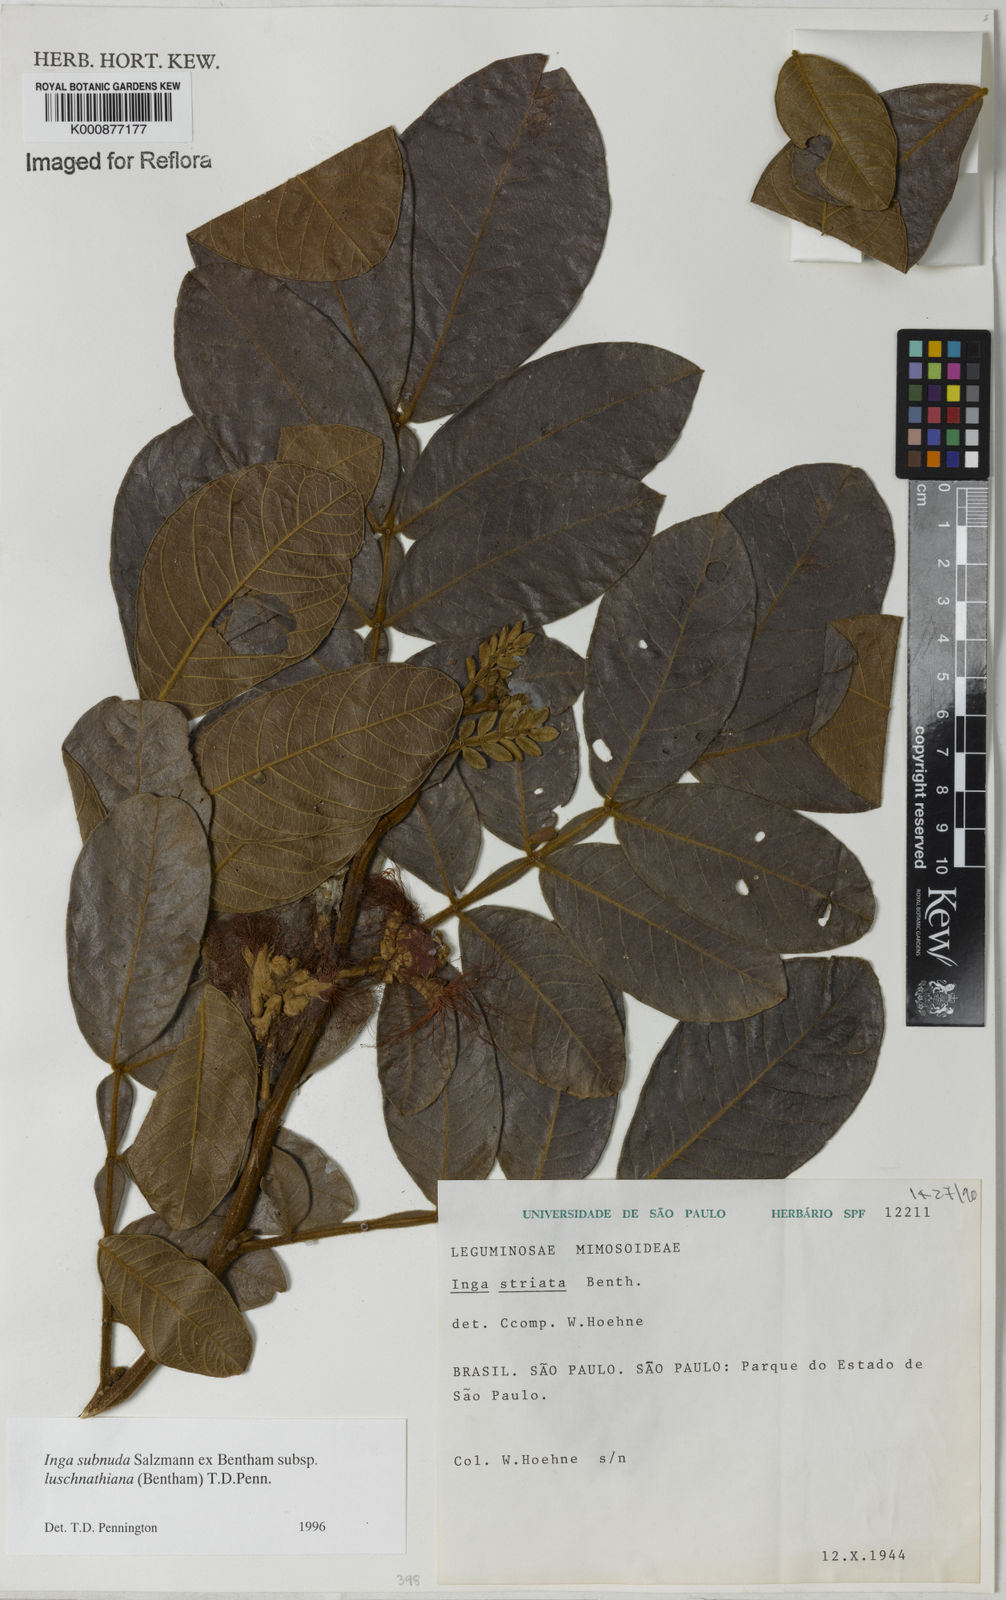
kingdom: Plantae
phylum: Tracheophyta
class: Magnoliopsida
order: Fabales
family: Fabaceae
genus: Inga
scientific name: Inga subnuda
